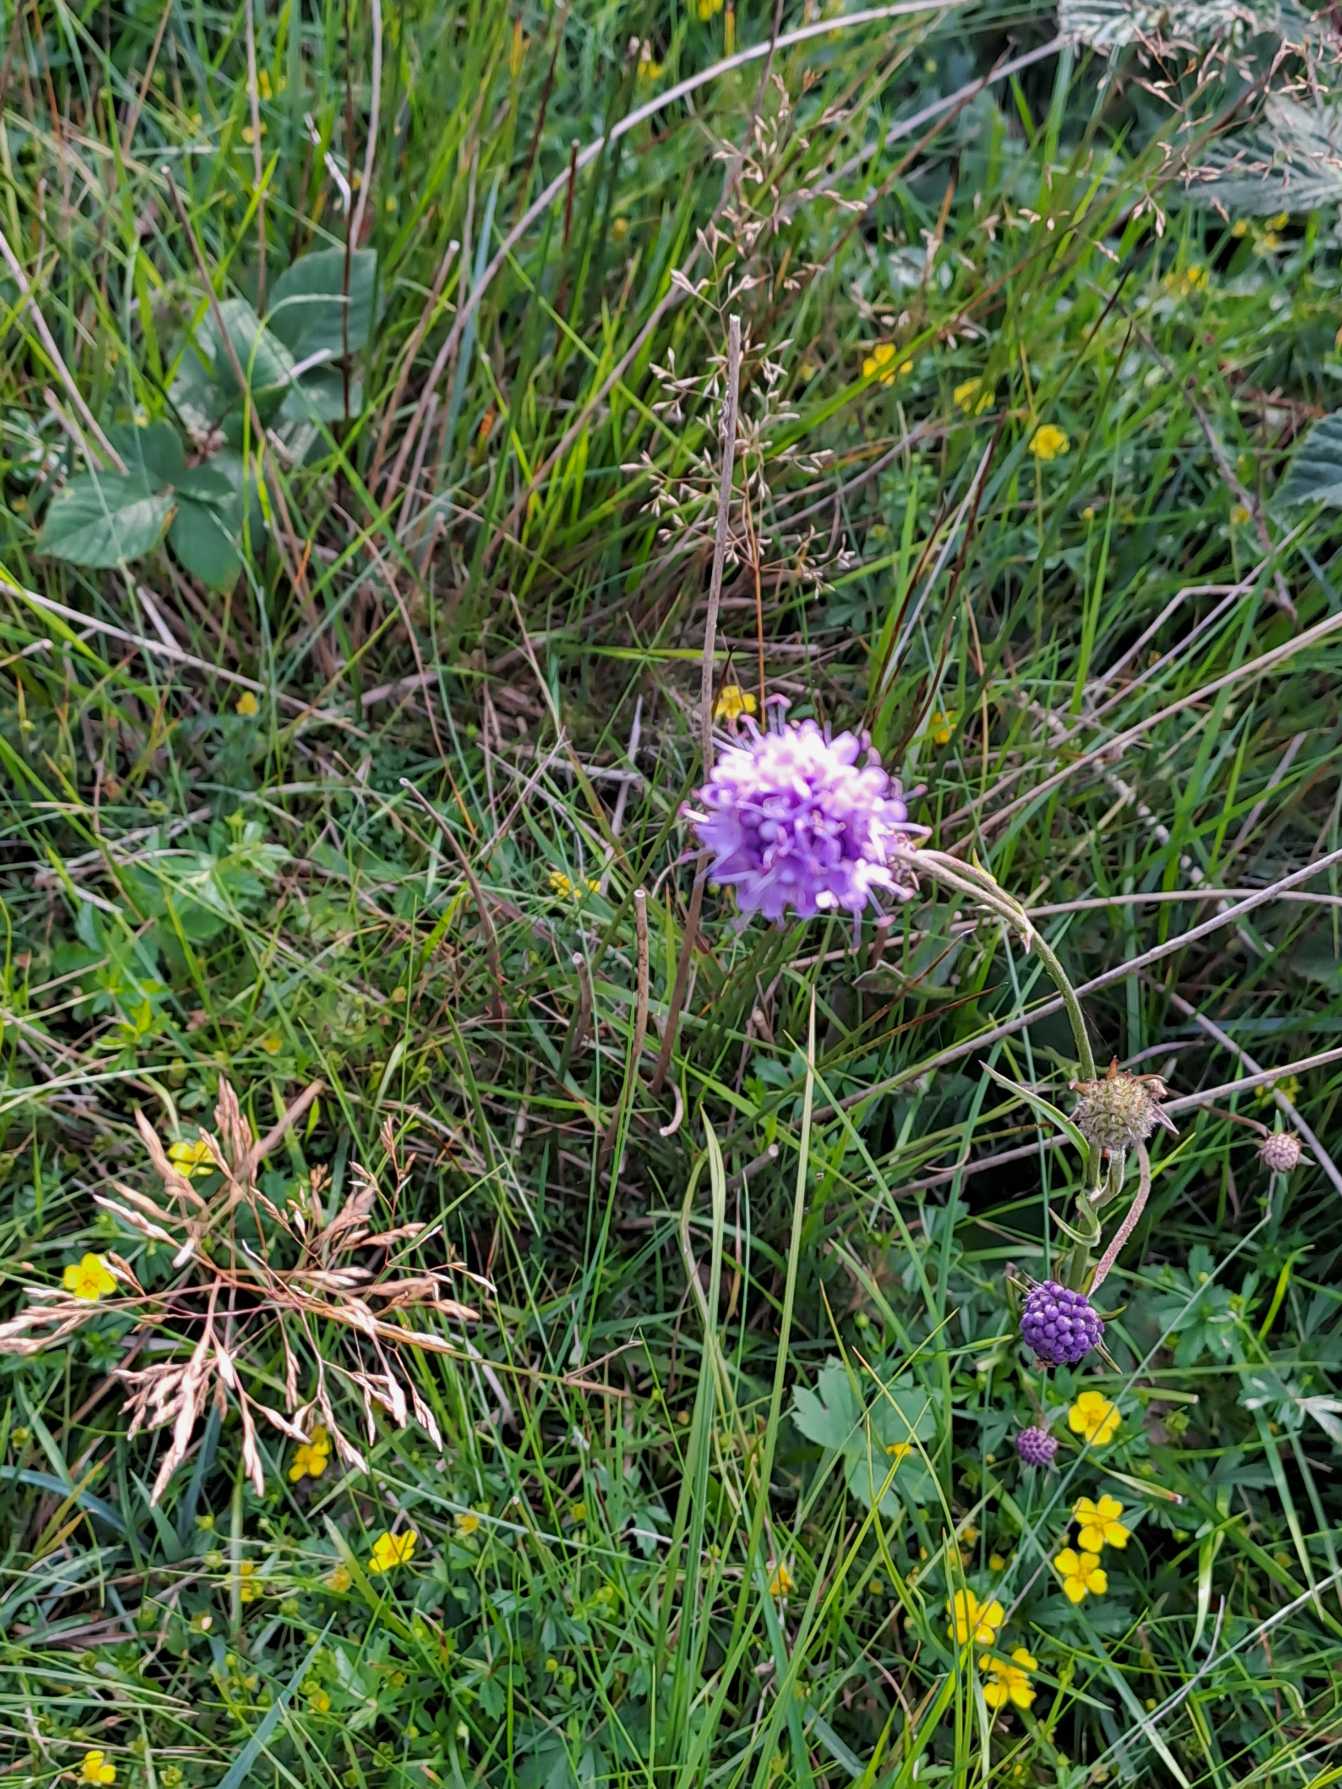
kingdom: Plantae
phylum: Tracheophyta
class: Magnoliopsida
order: Dipsacales
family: Caprifoliaceae
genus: Succisa
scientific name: Succisa pratensis
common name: Djævelsbid
